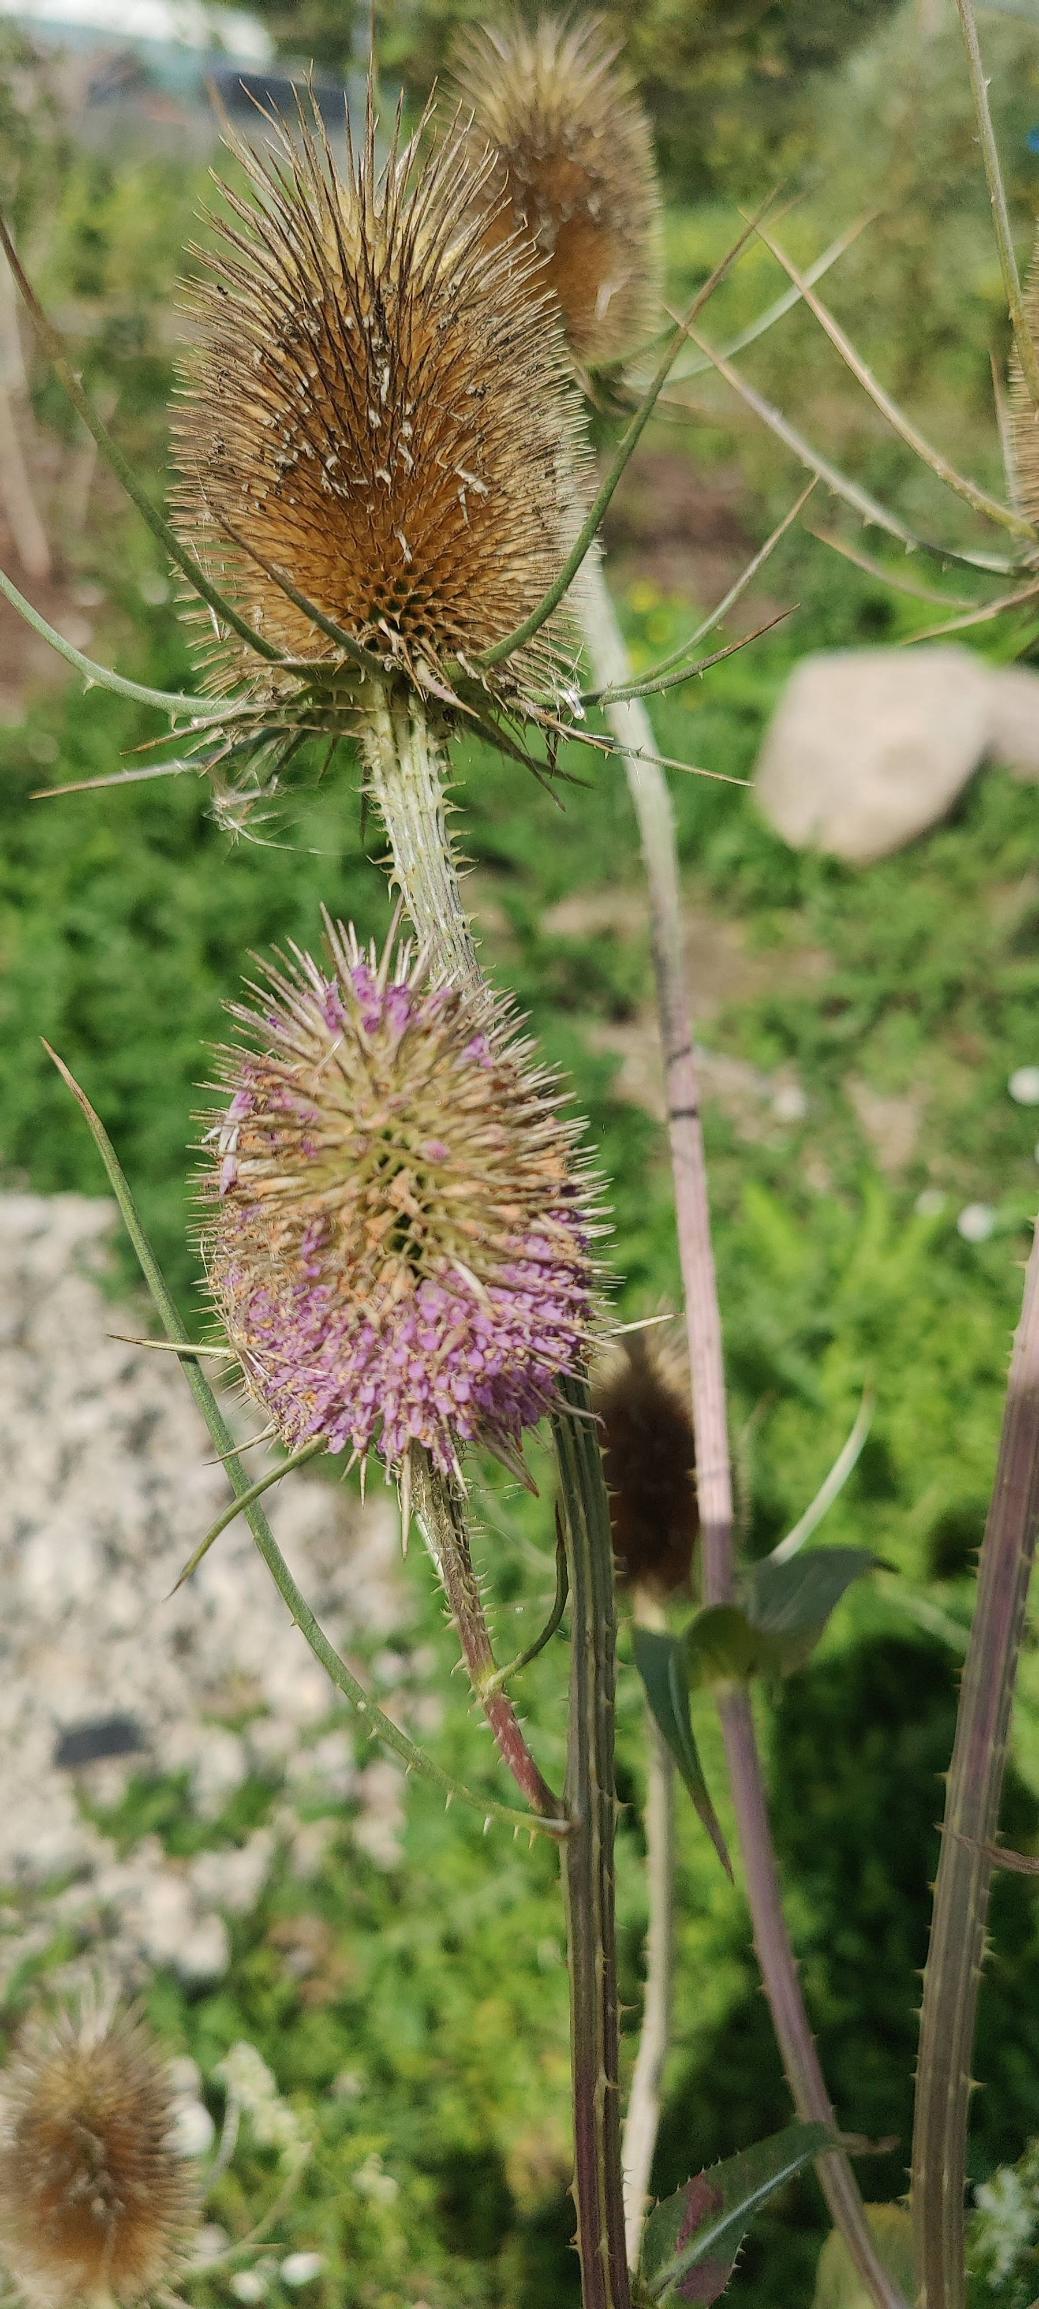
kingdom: Plantae
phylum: Tracheophyta
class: Magnoliopsida
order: Dipsacales
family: Caprifoliaceae
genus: Dipsacus
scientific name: Dipsacus fullonum
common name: Gærde-kartebolle
